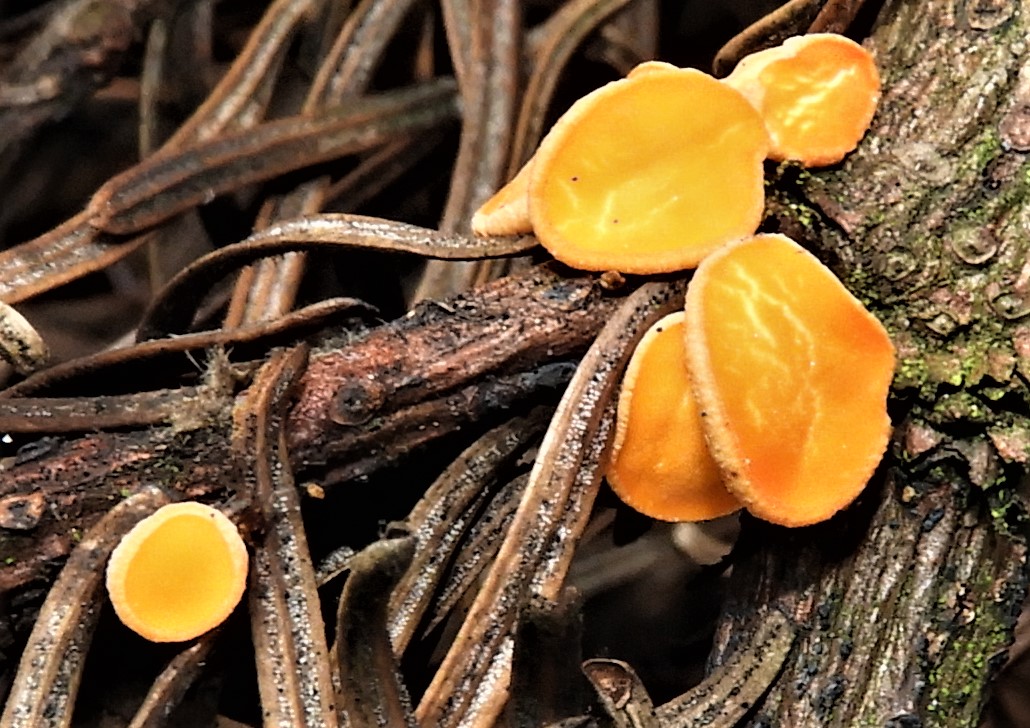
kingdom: Fungi
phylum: Ascomycota
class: Pezizomycetes
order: Pezizales
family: Sarcoscyphaceae
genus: Pithya
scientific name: Pithya vulgaris
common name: stor dukatbæger
